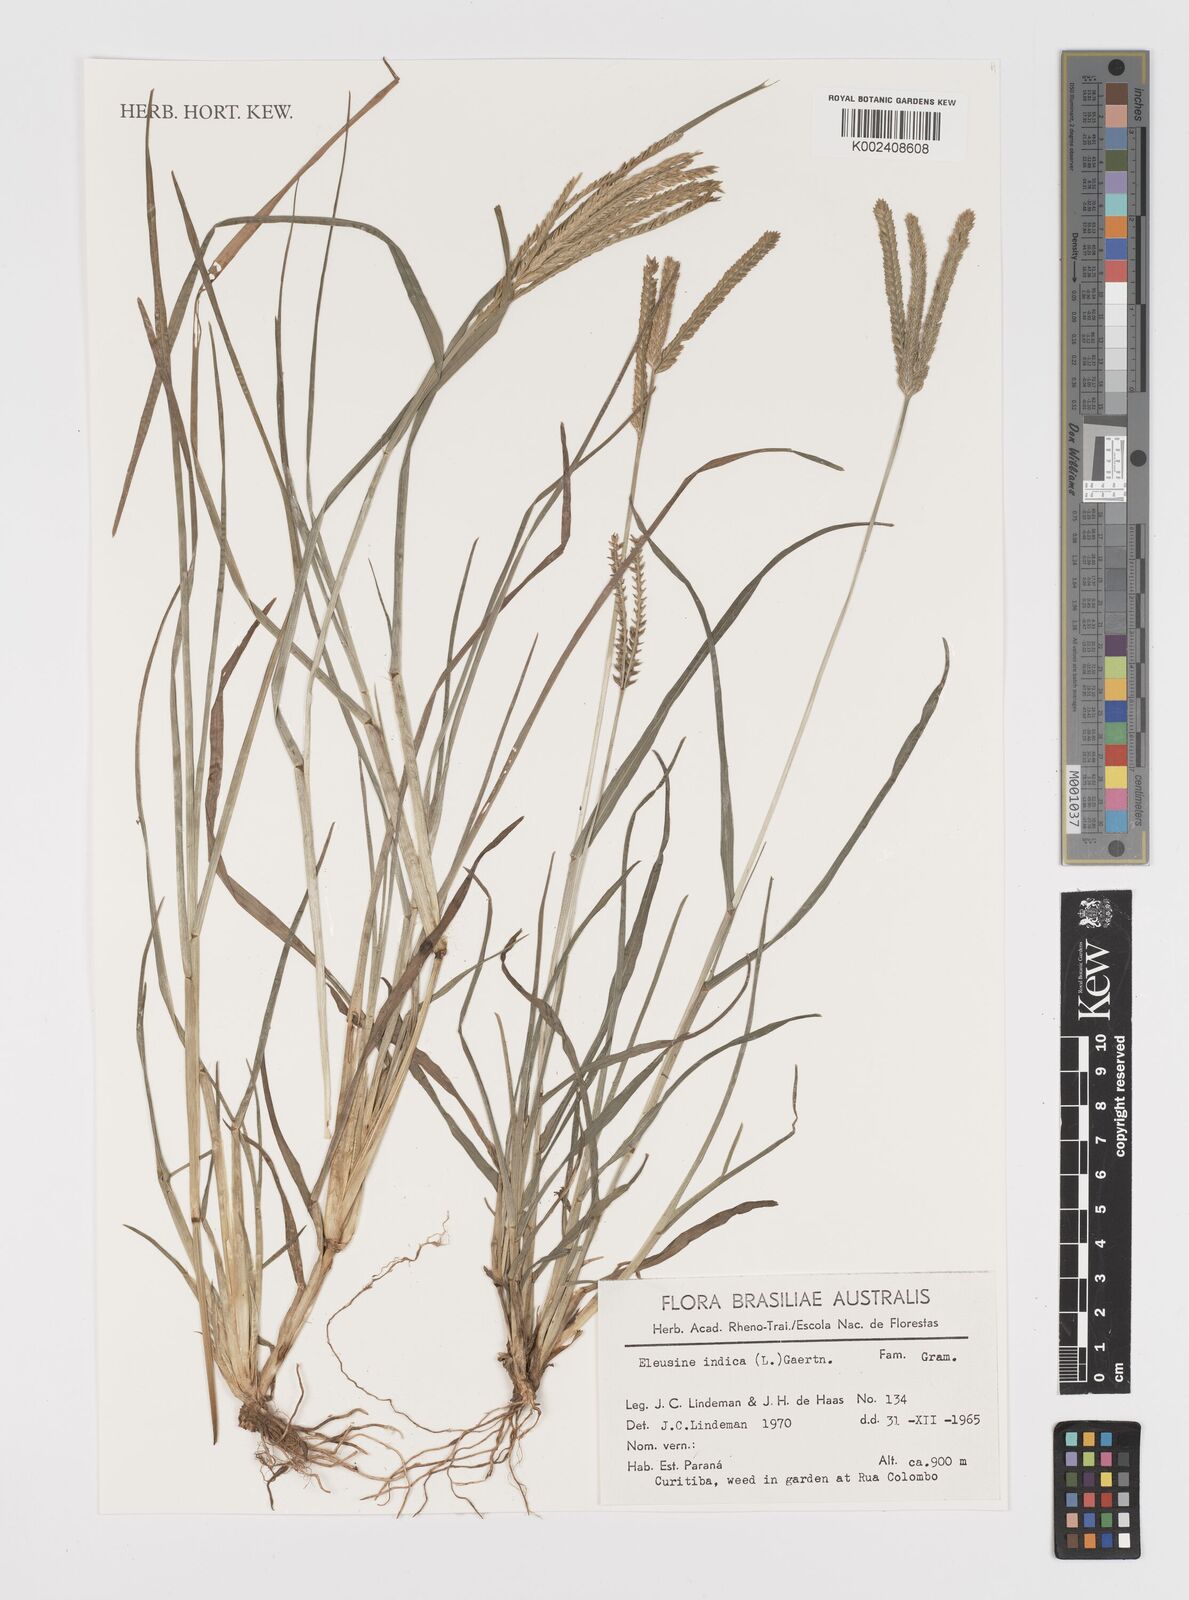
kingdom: Plantae
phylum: Tracheophyta
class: Liliopsida
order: Poales
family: Poaceae
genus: Eleusine
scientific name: Eleusine indica
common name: Yard-grass
